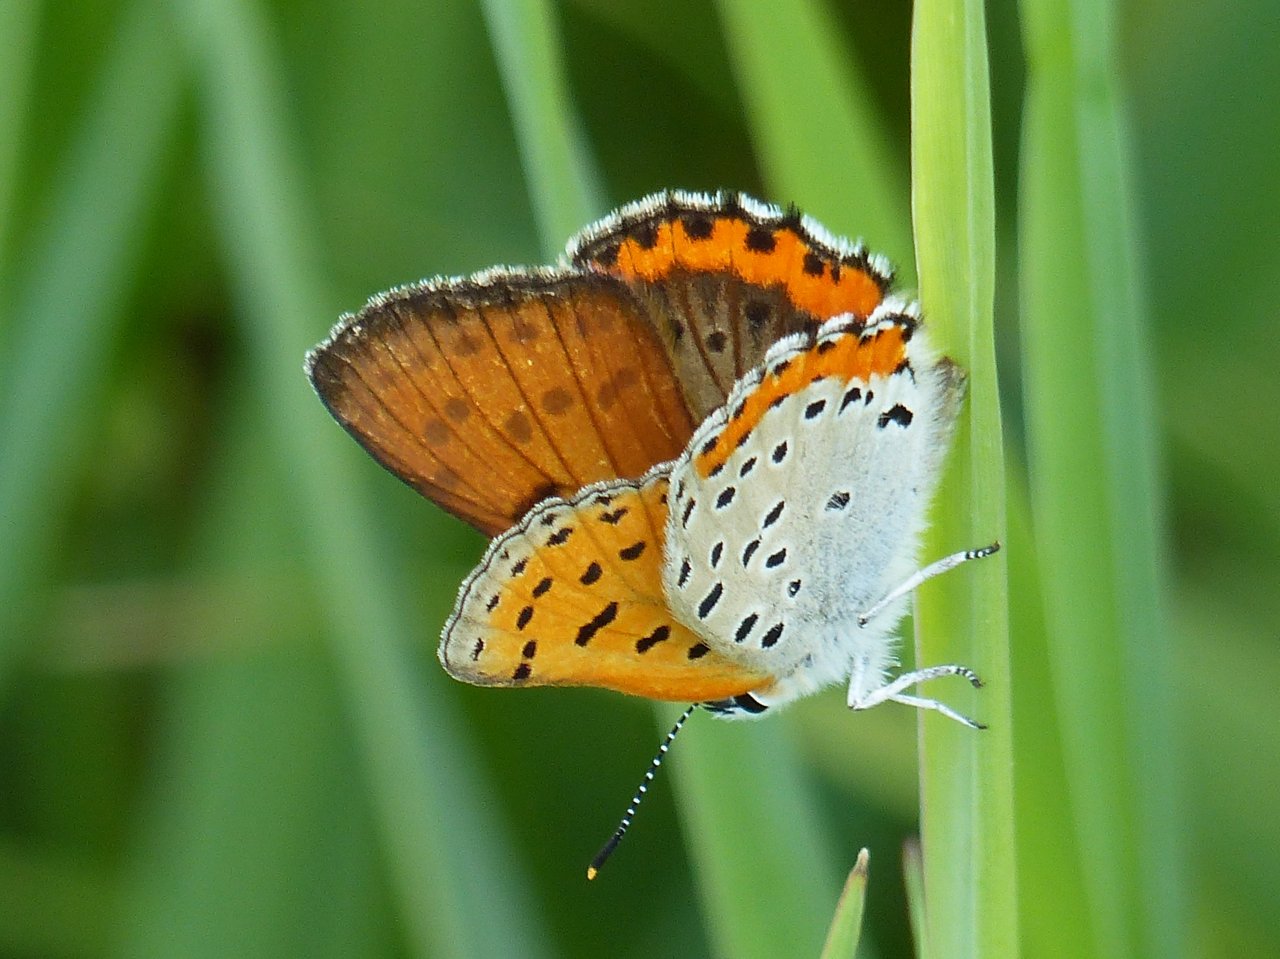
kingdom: Animalia
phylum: Arthropoda
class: Insecta
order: Lepidoptera
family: Sesiidae
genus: Sesia
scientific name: Sesia Lycaena hyllus
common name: Bronze Copper
